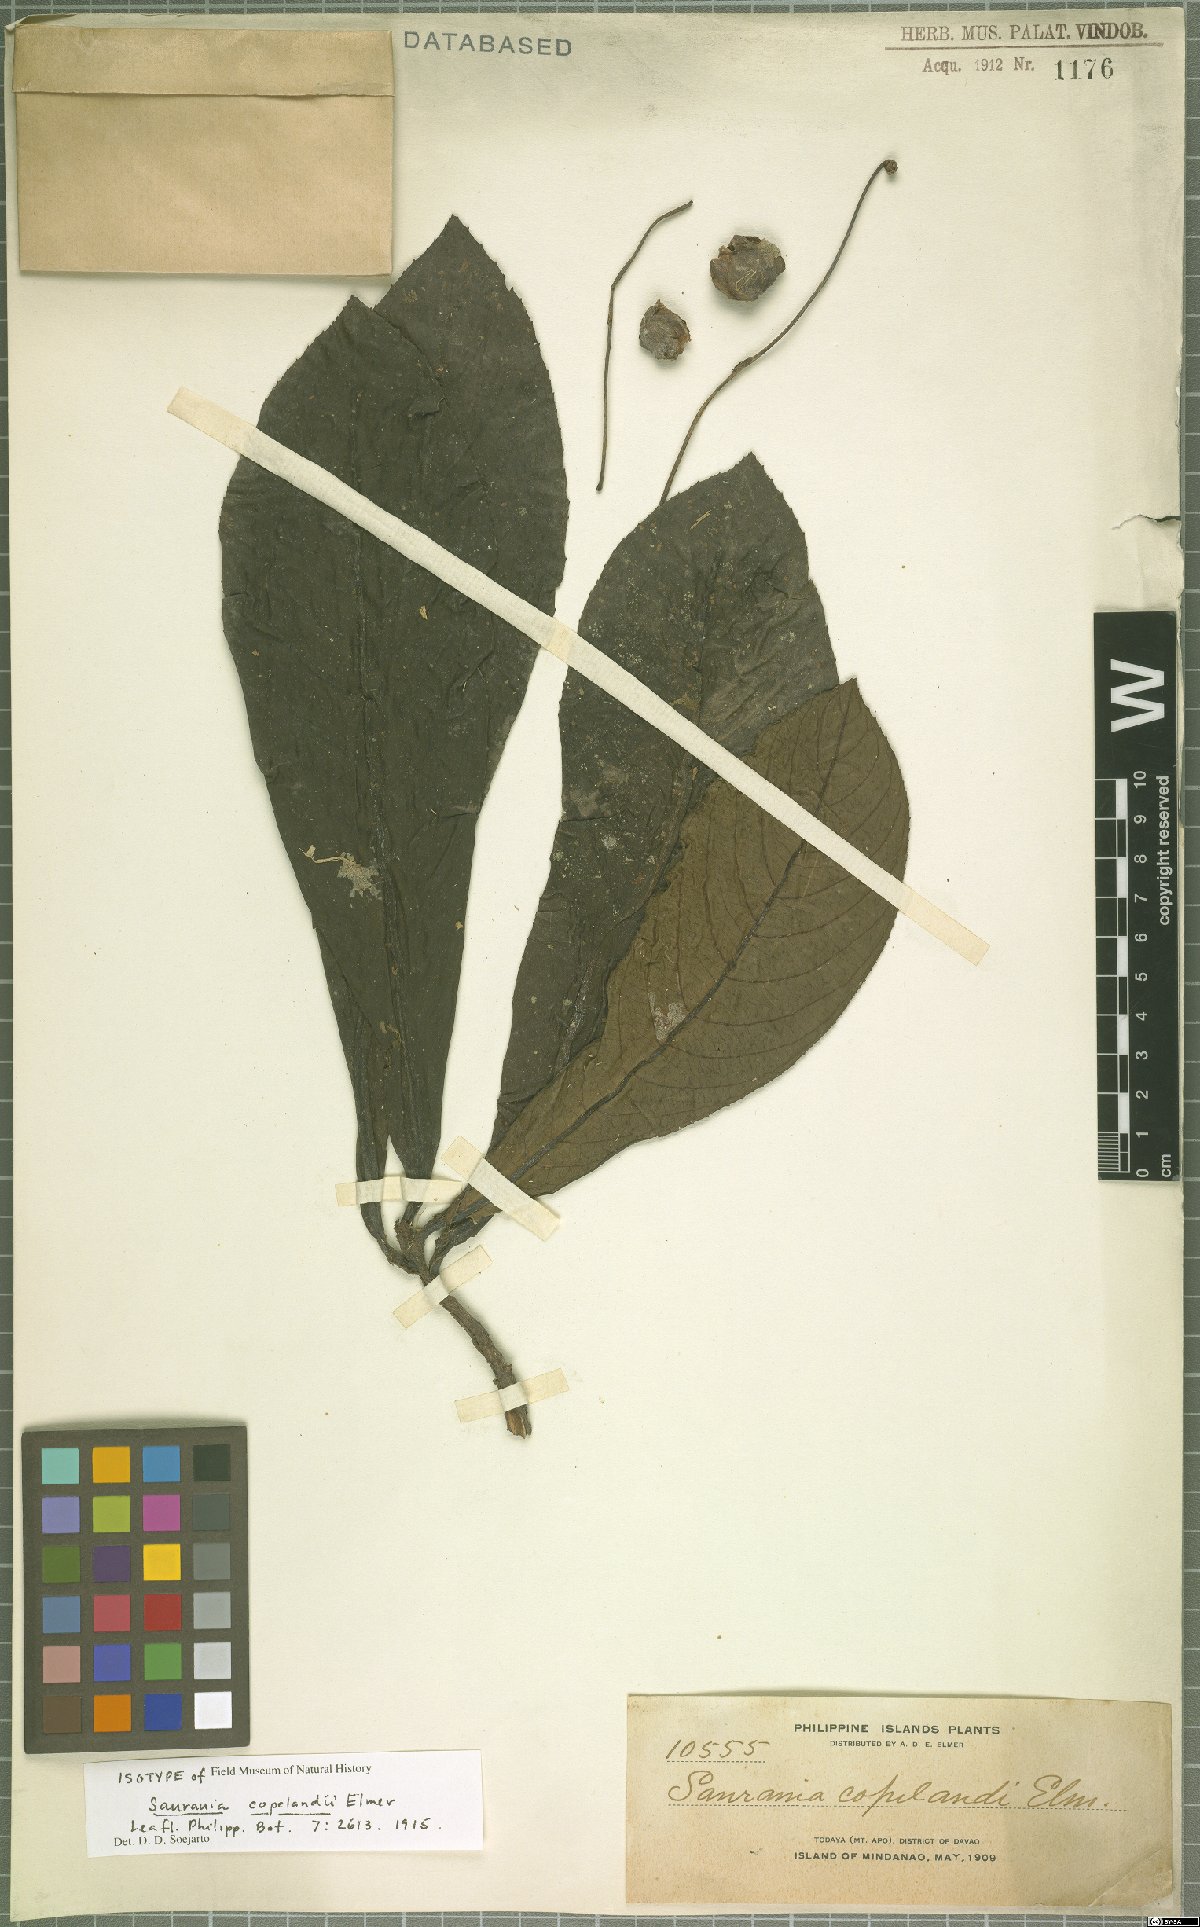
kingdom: Plantae
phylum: Tracheophyta
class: Magnoliopsida
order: Ericales
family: Actinidiaceae
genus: Saurauia
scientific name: Saurauia copelandii
